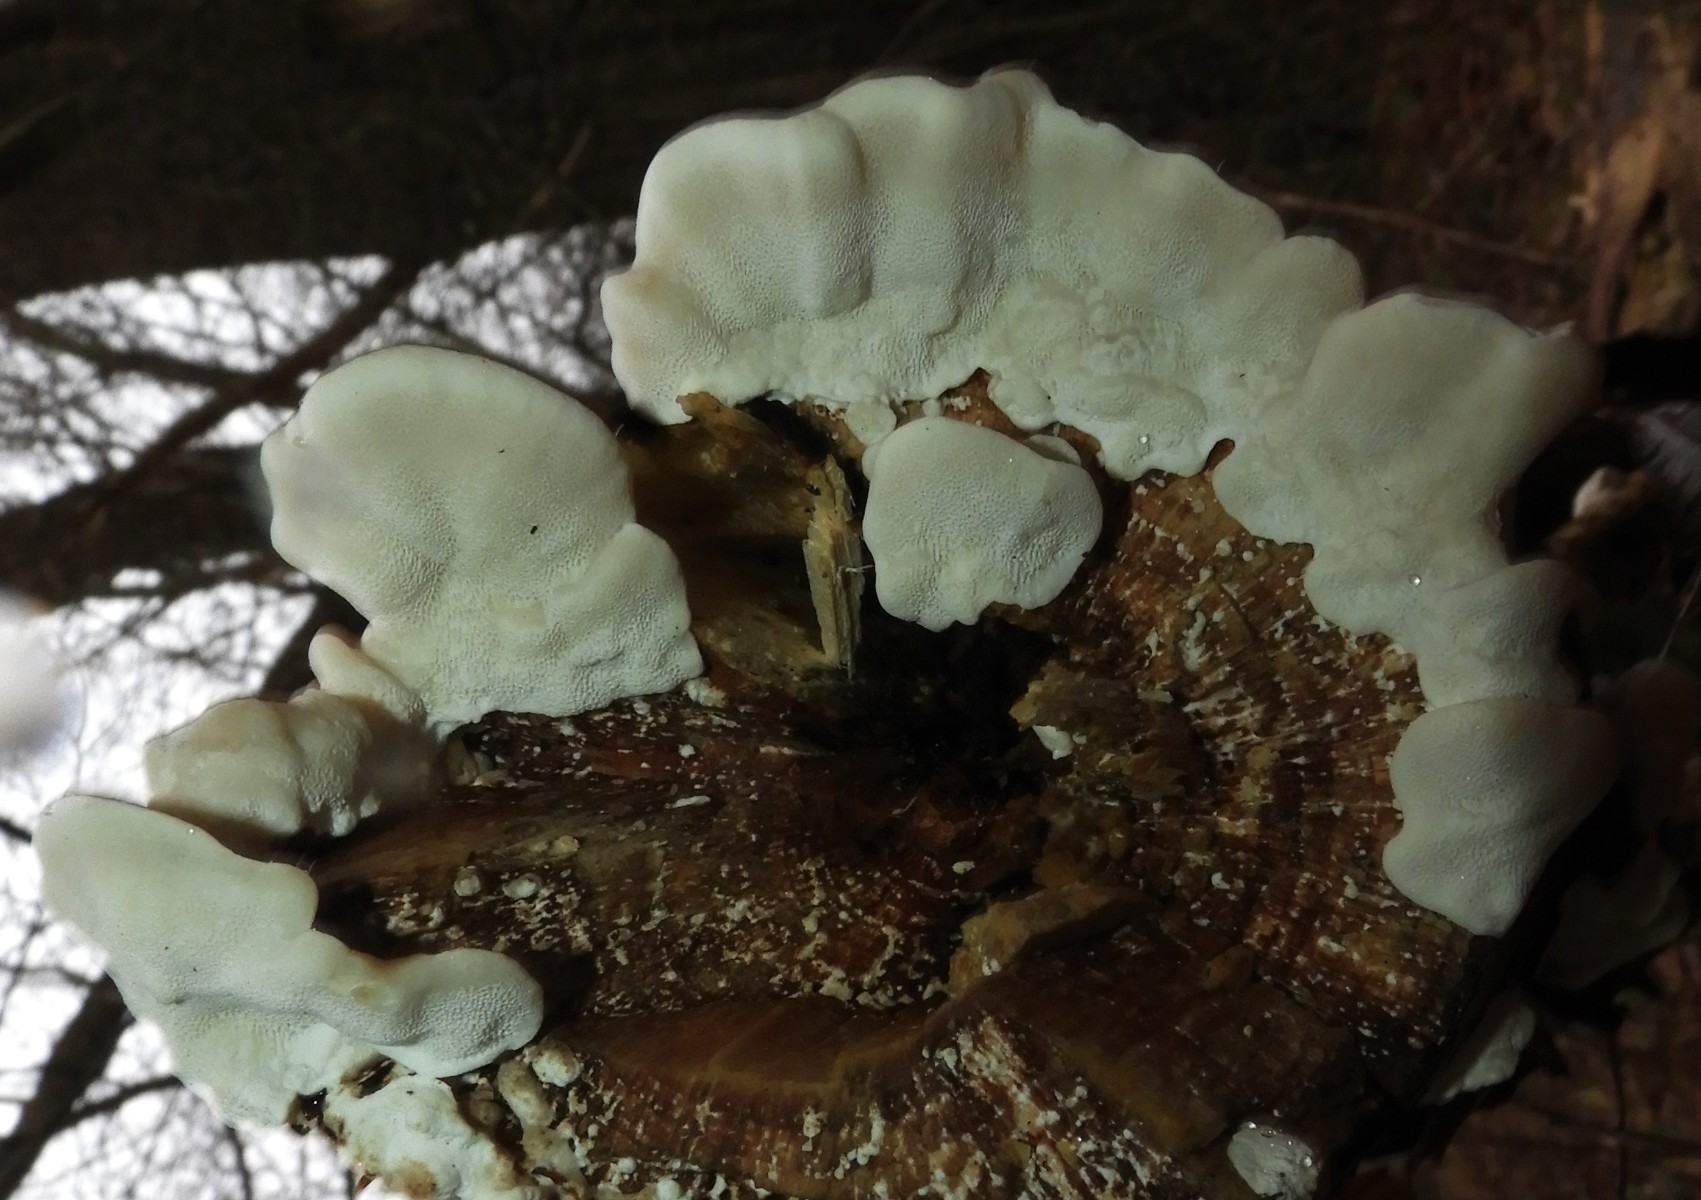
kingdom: Fungi
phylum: Basidiomycota
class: Agaricomycetes
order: Polyporales
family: Polyporaceae
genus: Trametes
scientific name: Trametes versicolor
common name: broget læderporesvamp
